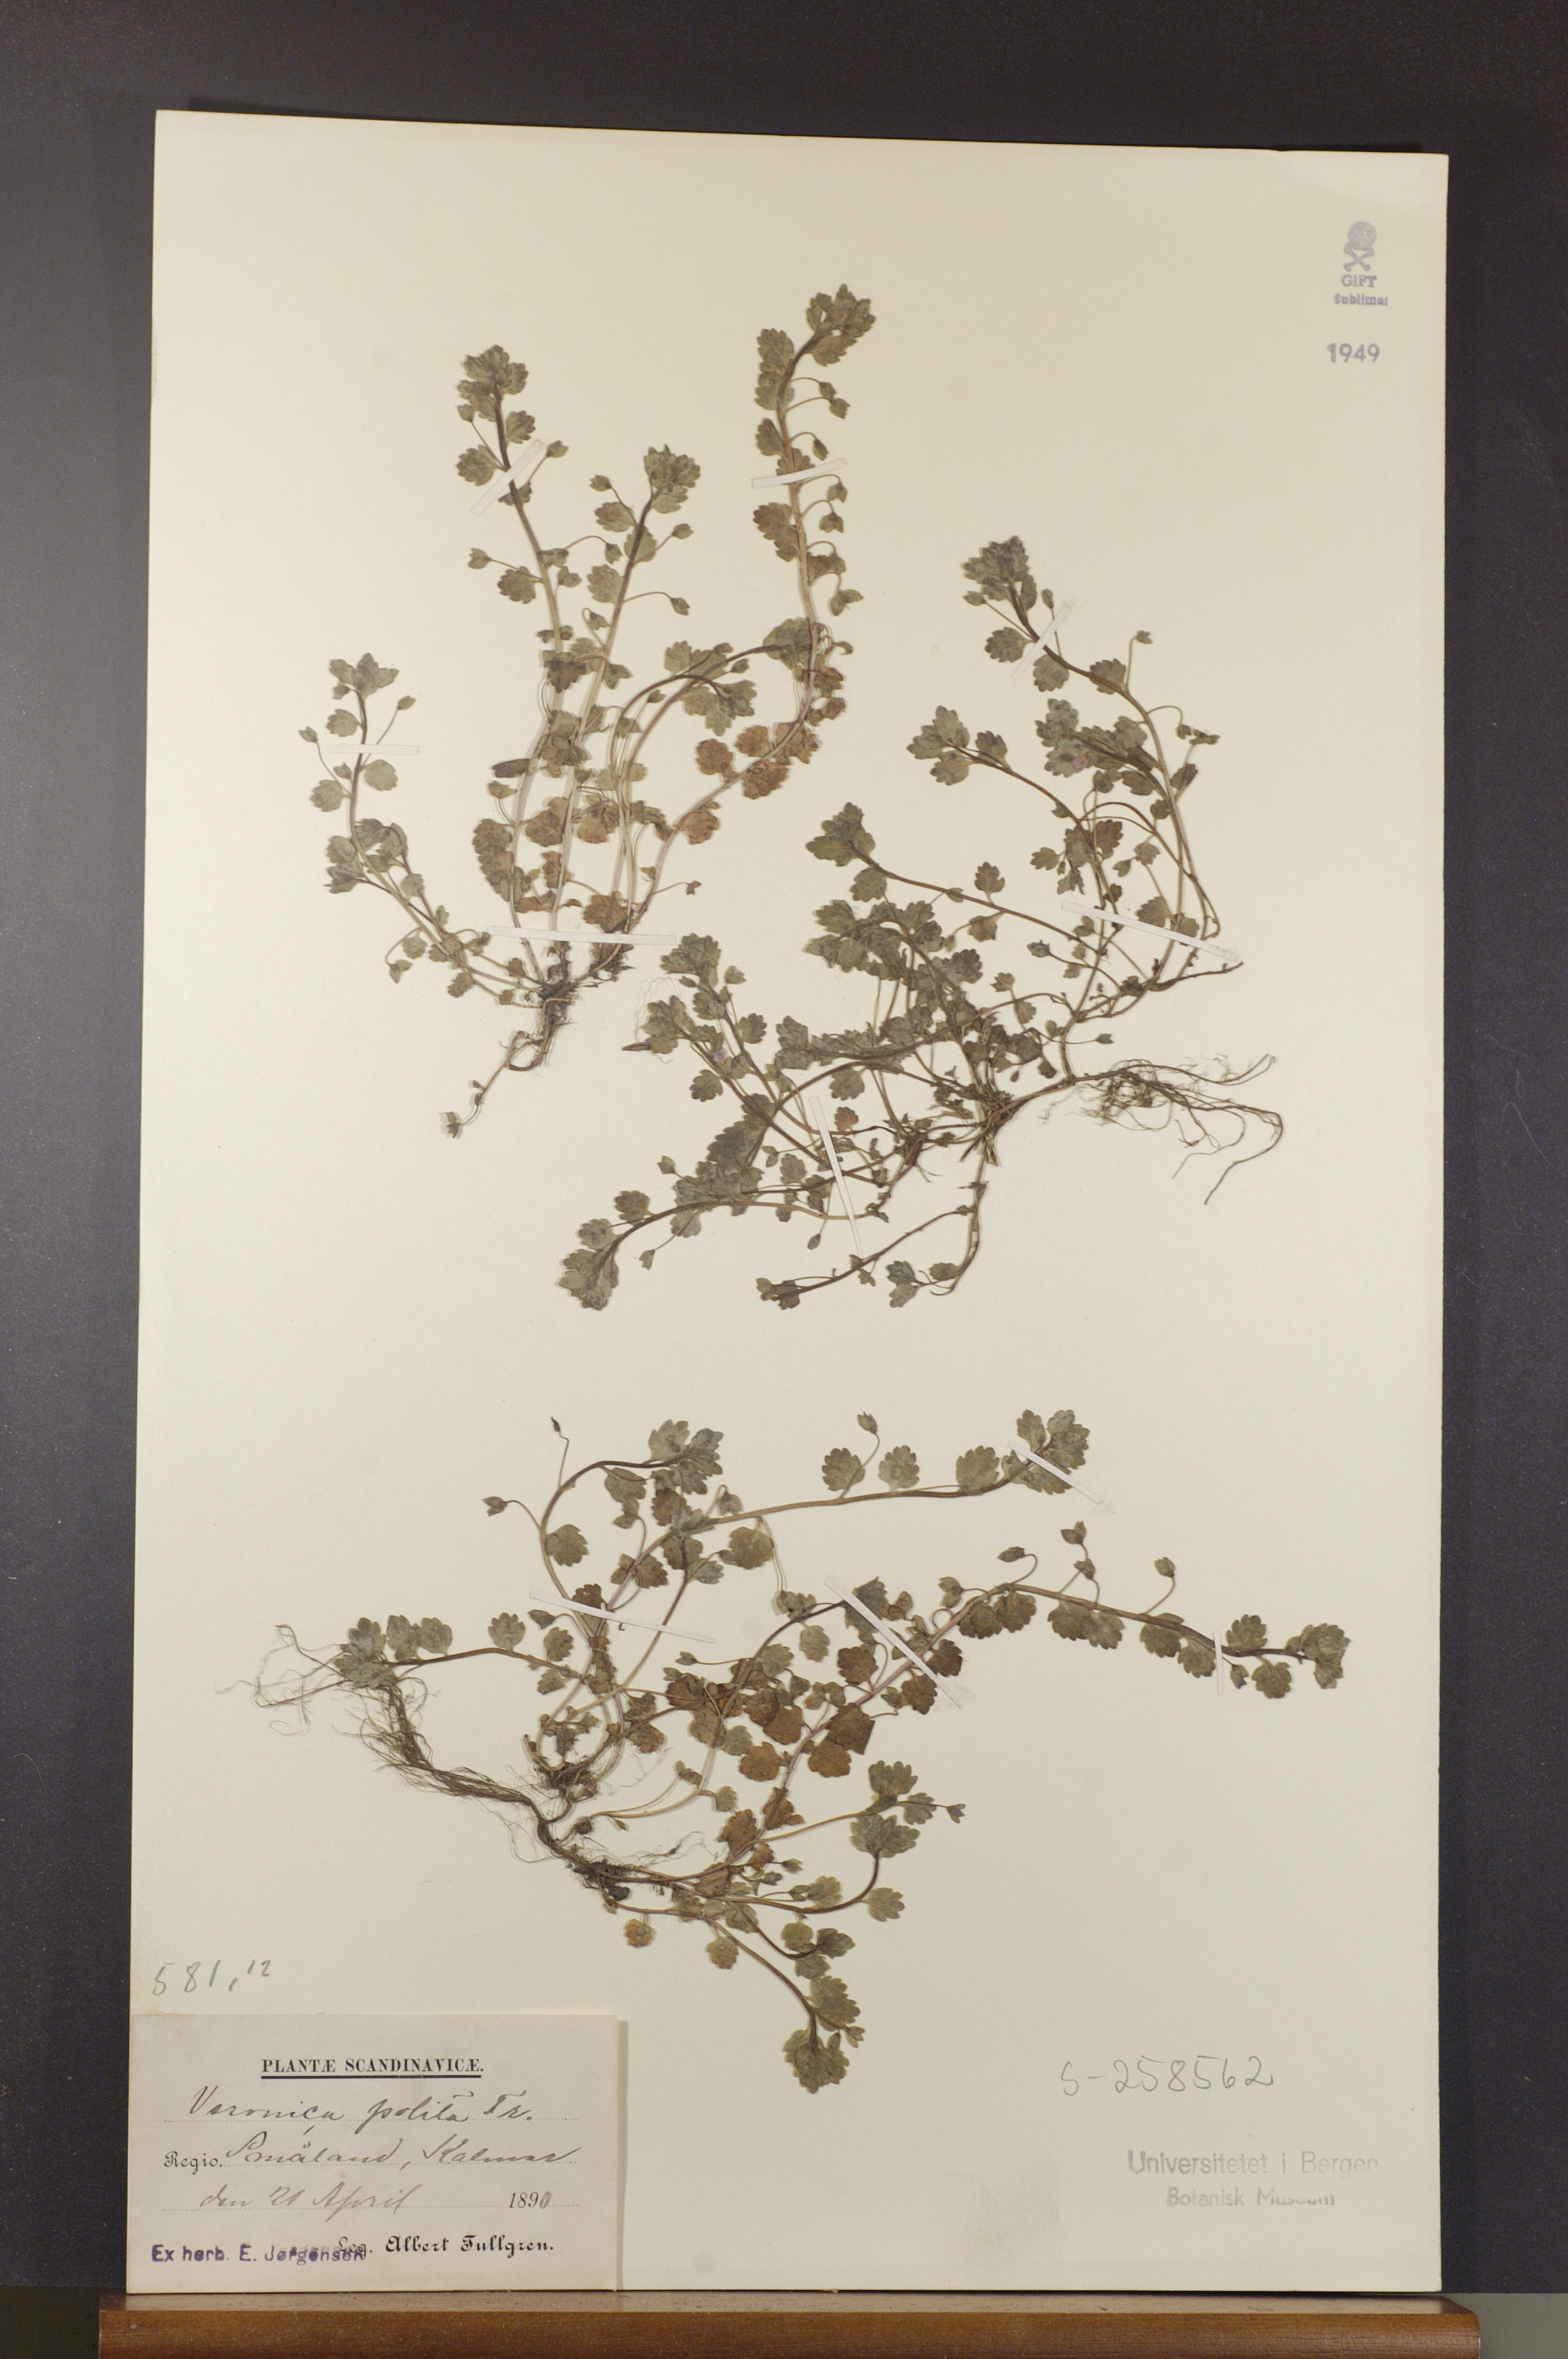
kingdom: Plantae
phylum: Tracheophyta
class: Magnoliopsida
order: Lamiales
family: Plantaginaceae
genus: Veronica
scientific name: Veronica polita
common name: Grey field-speedwell
